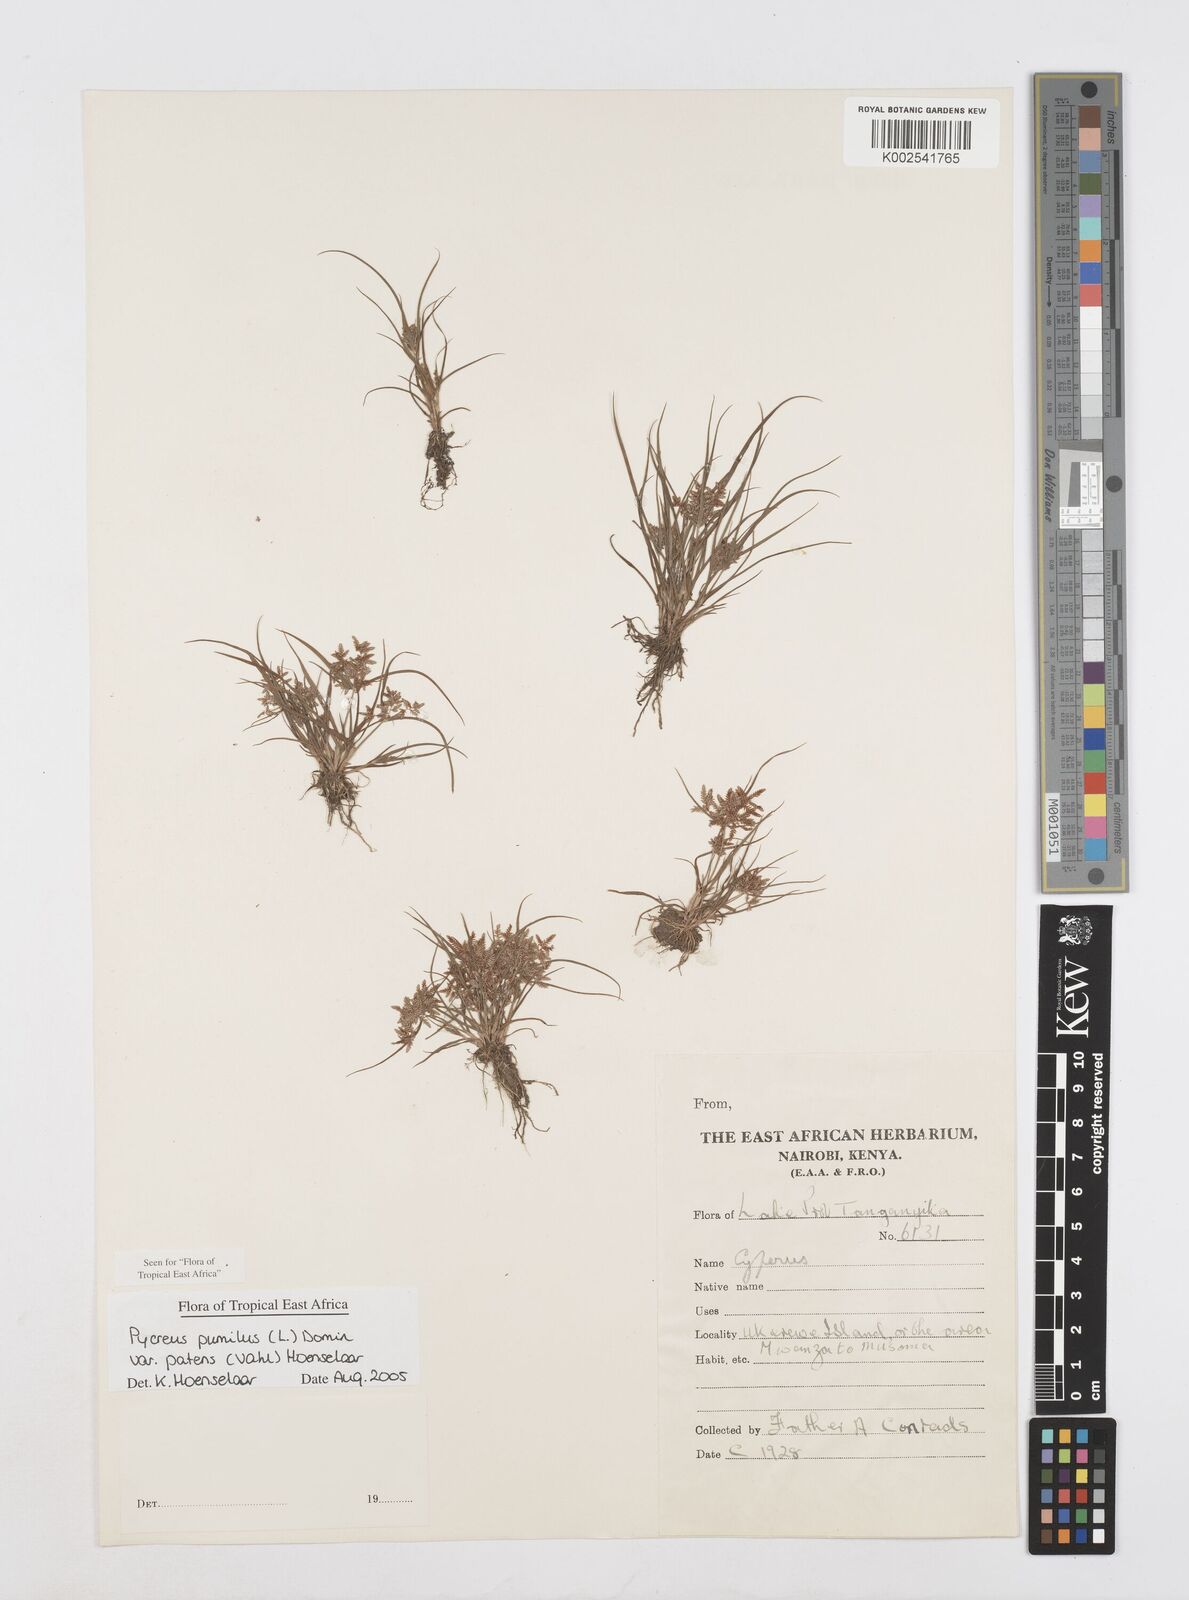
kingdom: Plantae
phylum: Tracheophyta
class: Liliopsida
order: Poales
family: Cyperaceae
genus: Cyperus
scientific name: Cyperus pumilus
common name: Low flatsedge
